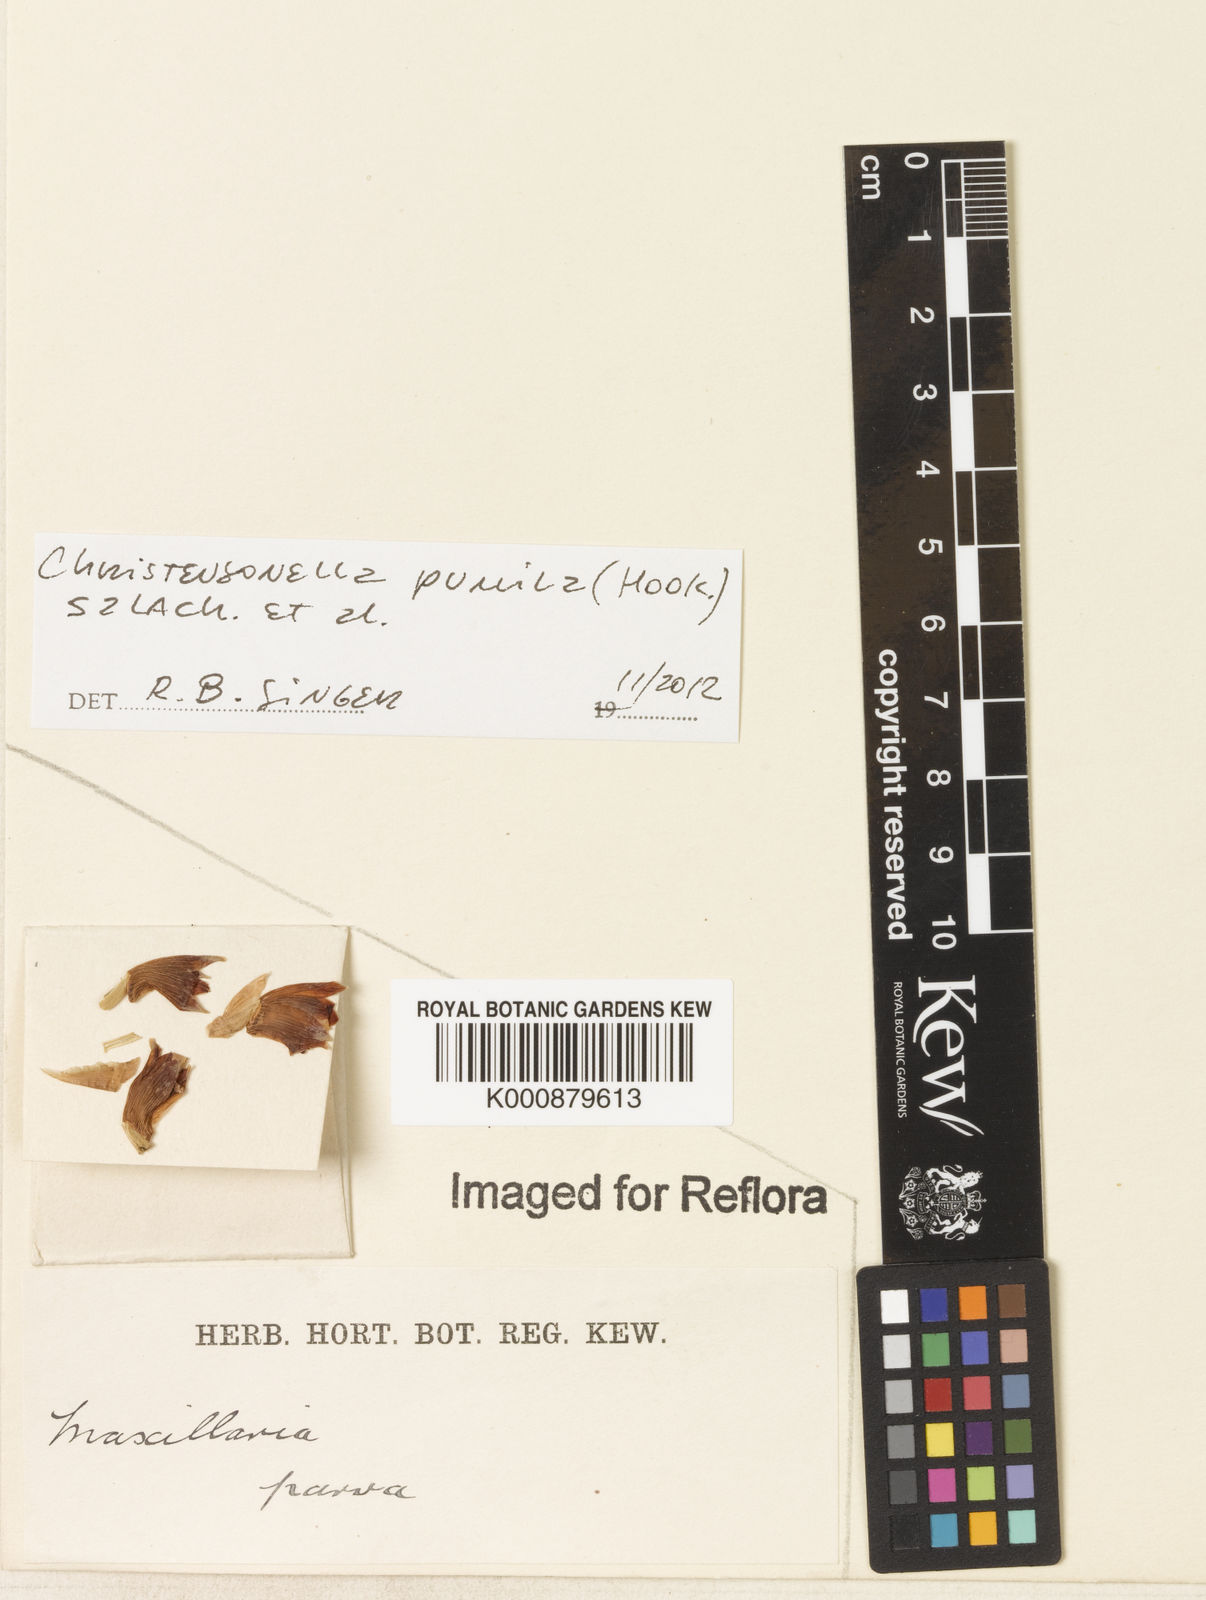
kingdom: Plantae
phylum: Tracheophyta
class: Liliopsida
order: Asparagales
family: Orchidaceae
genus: Maxillaria
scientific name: Maxillaria pumila
